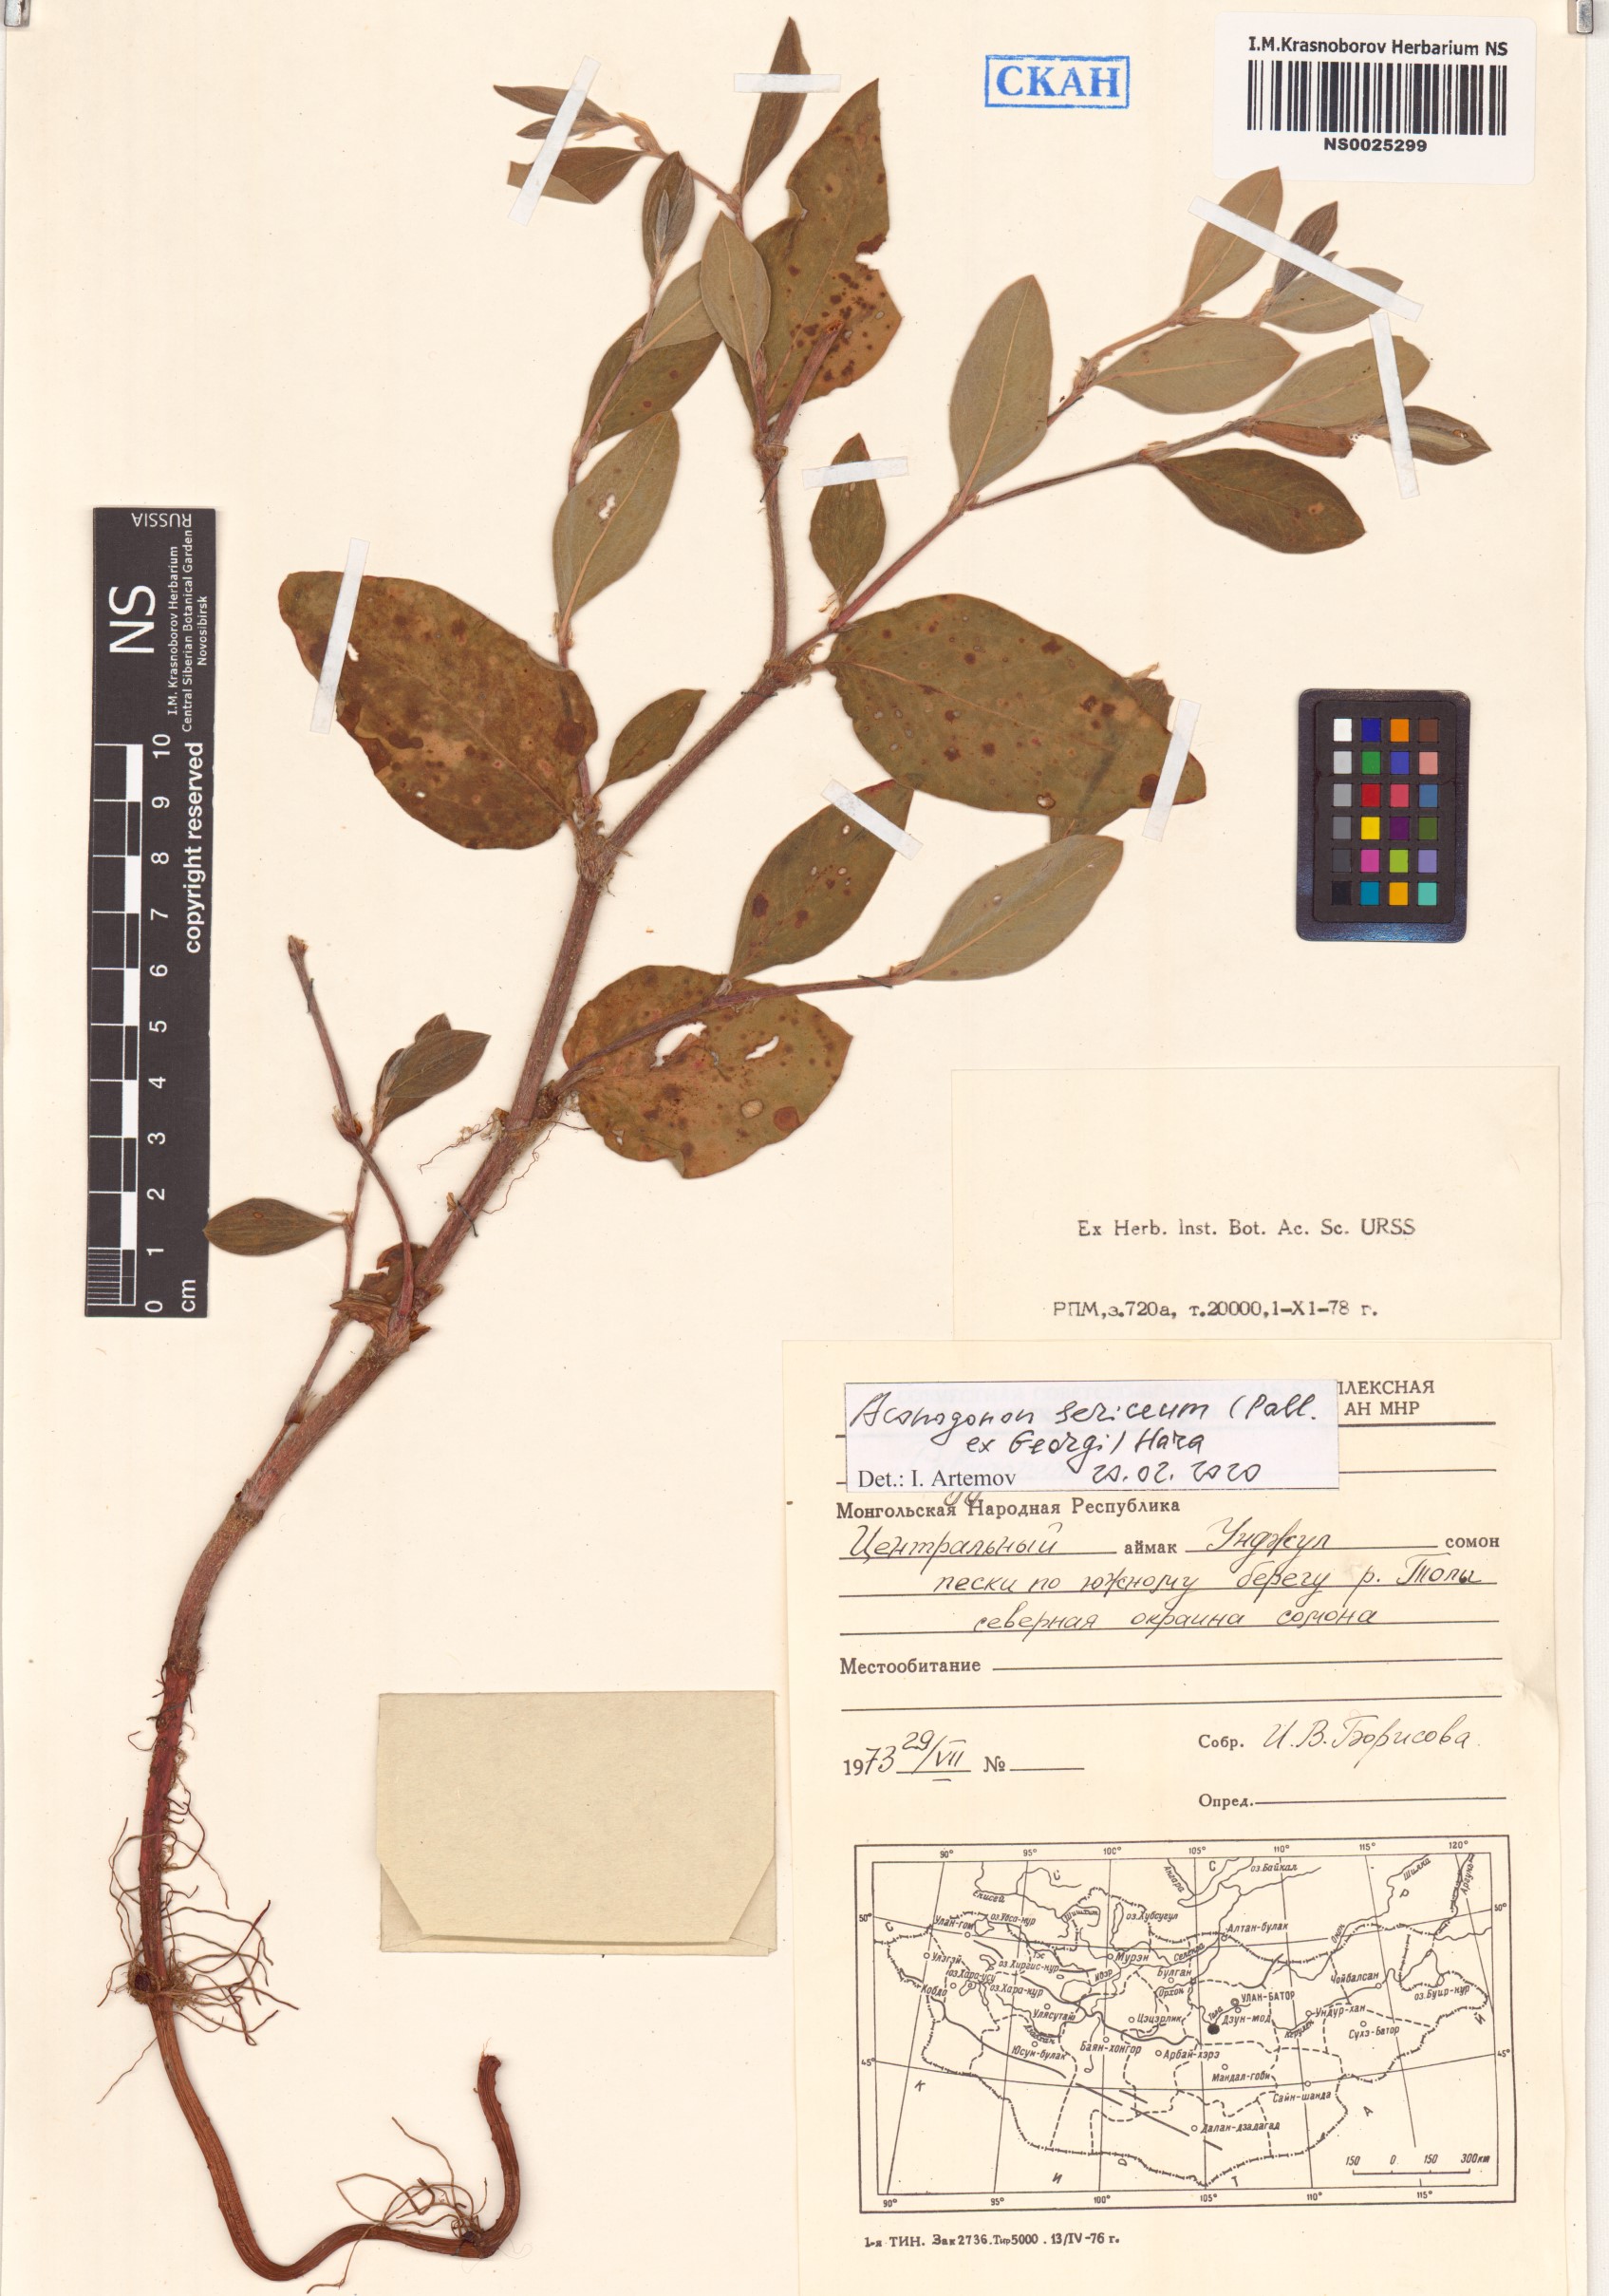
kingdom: Plantae
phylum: Tracheophyta
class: Magnoliopsida
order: Caryophyllales
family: Polygonaceae
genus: Polygonum
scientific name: Polygonum sericeum
